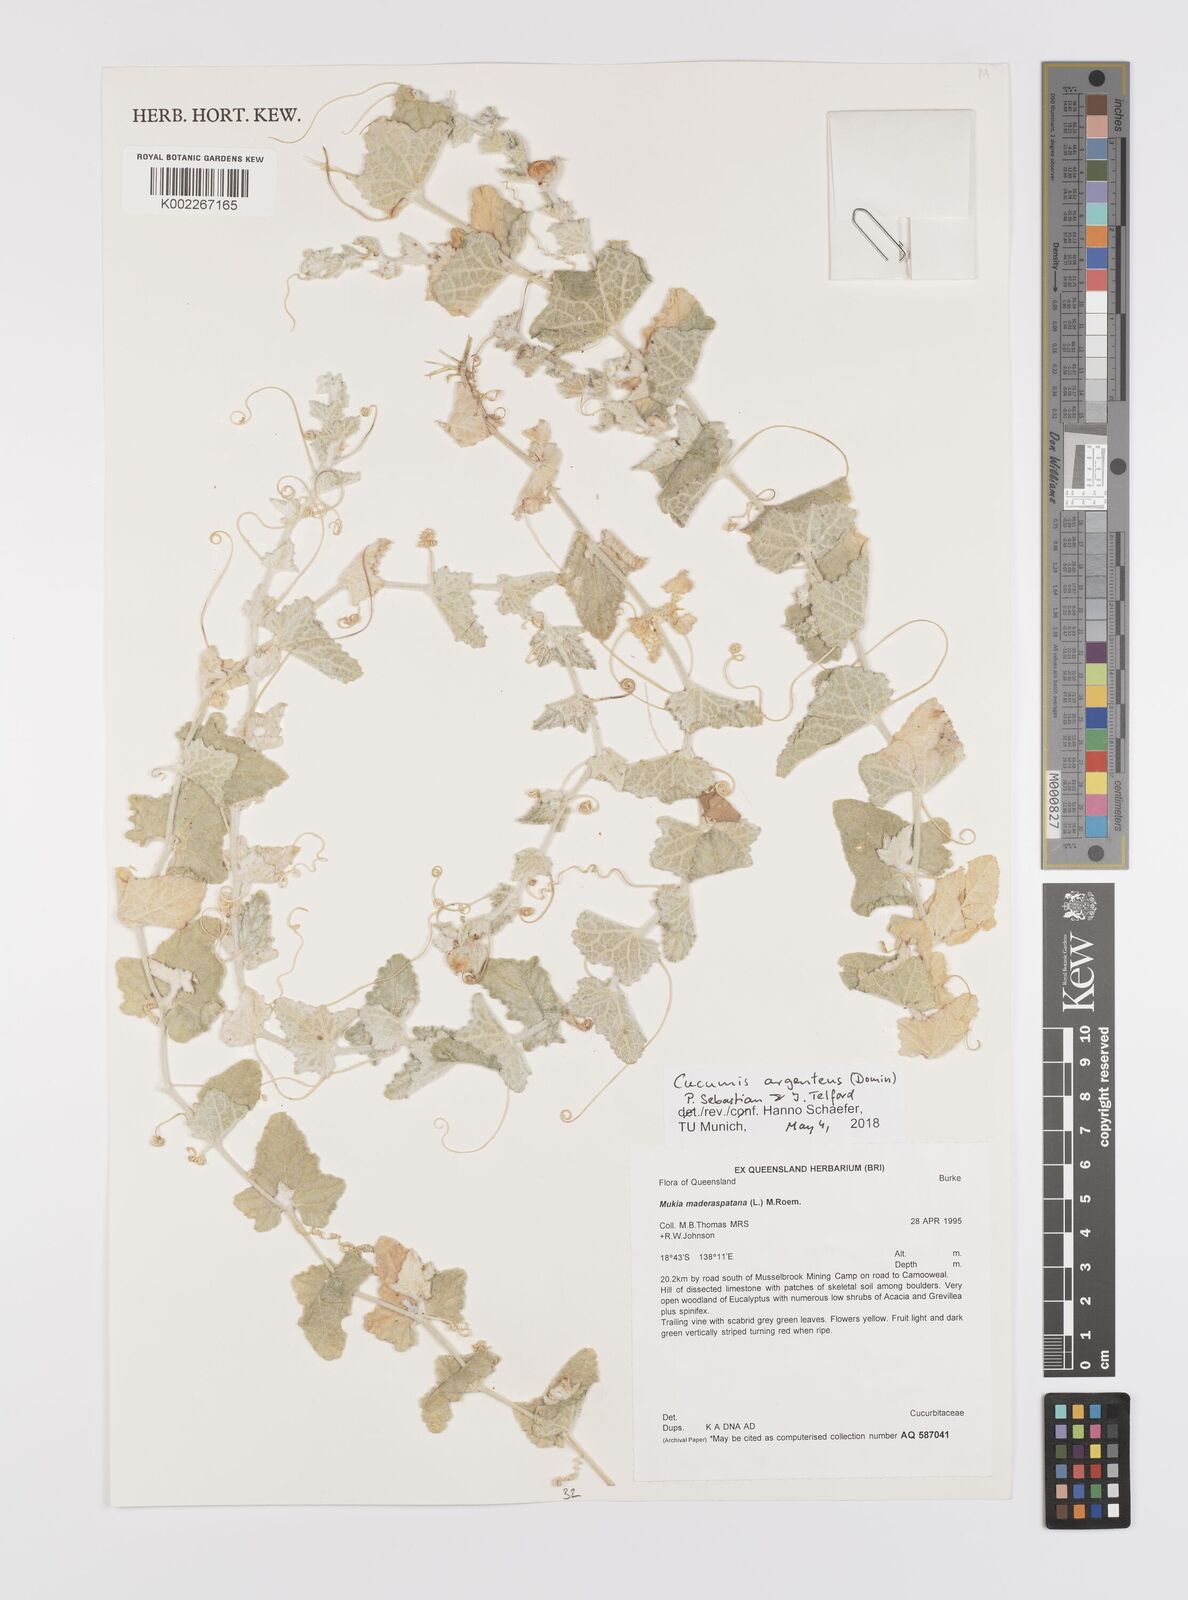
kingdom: Plantae
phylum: Tracheophyta
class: Magnoliopsida
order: Cucurbitales
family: Cucurbitaceae
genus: Cucumis
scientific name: Cucumis maderaspatanus
